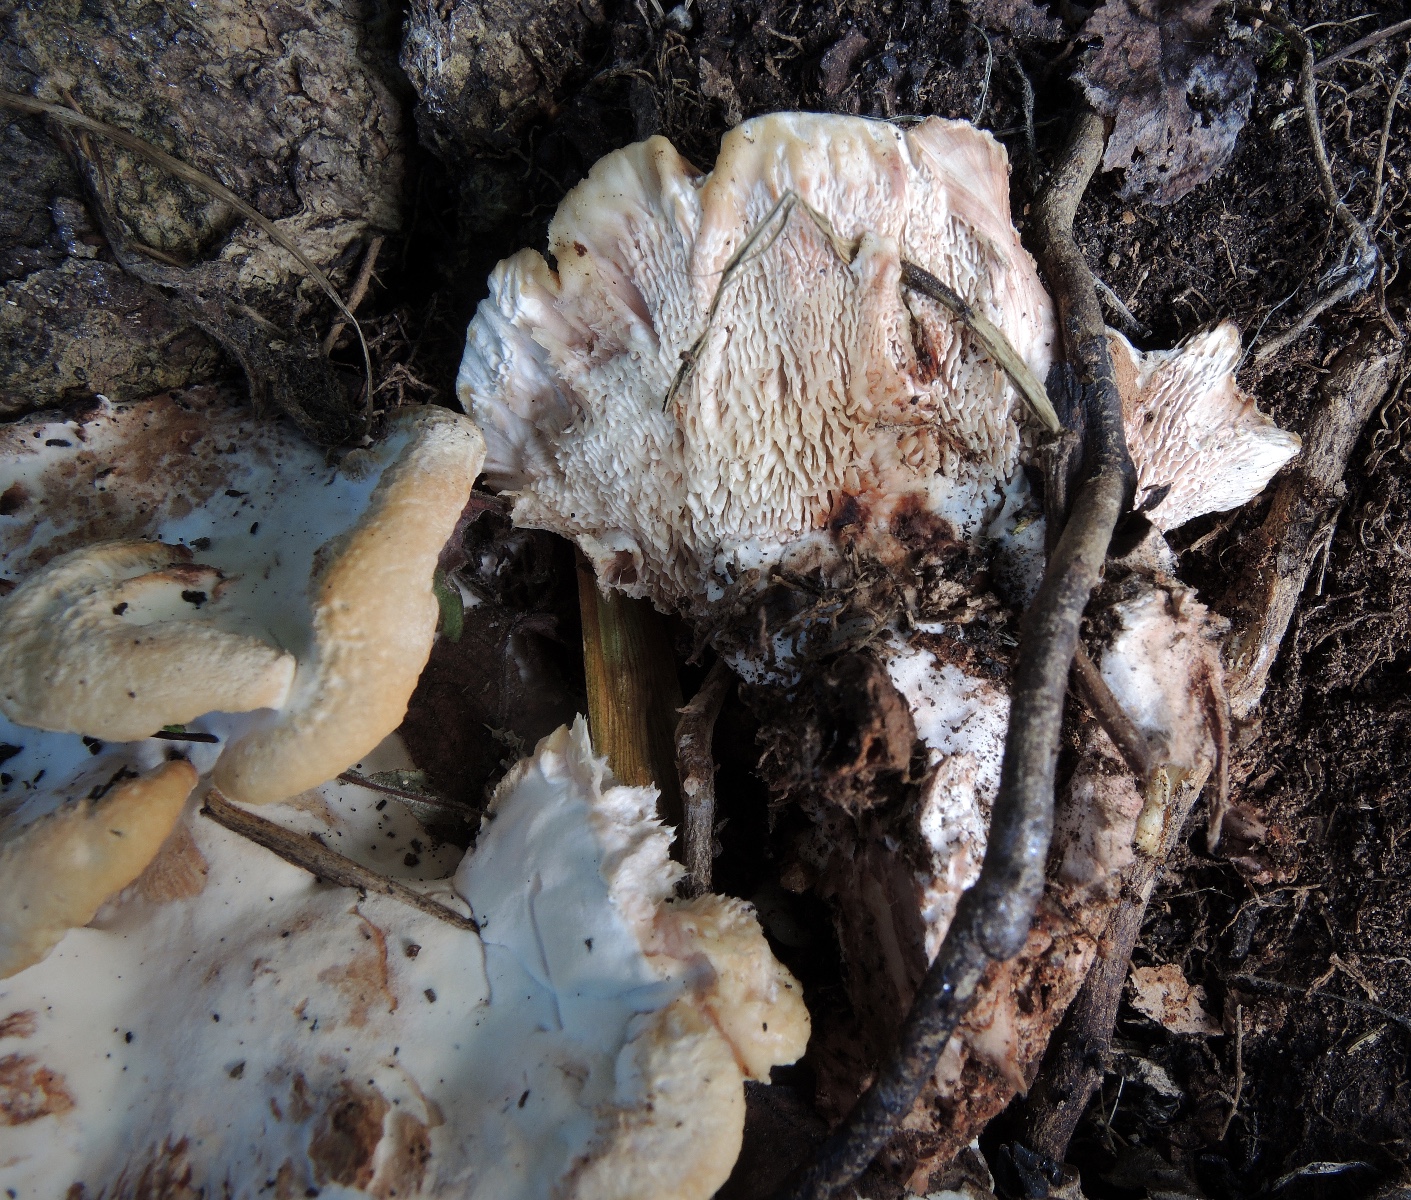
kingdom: Fungi
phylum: Basidiomycota
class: Agaricomycetes
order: Polyporales
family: Podoscyphaceae
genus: Abortiporus
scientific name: Abortiporus biennis
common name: rødmende pjalteporesvamp
